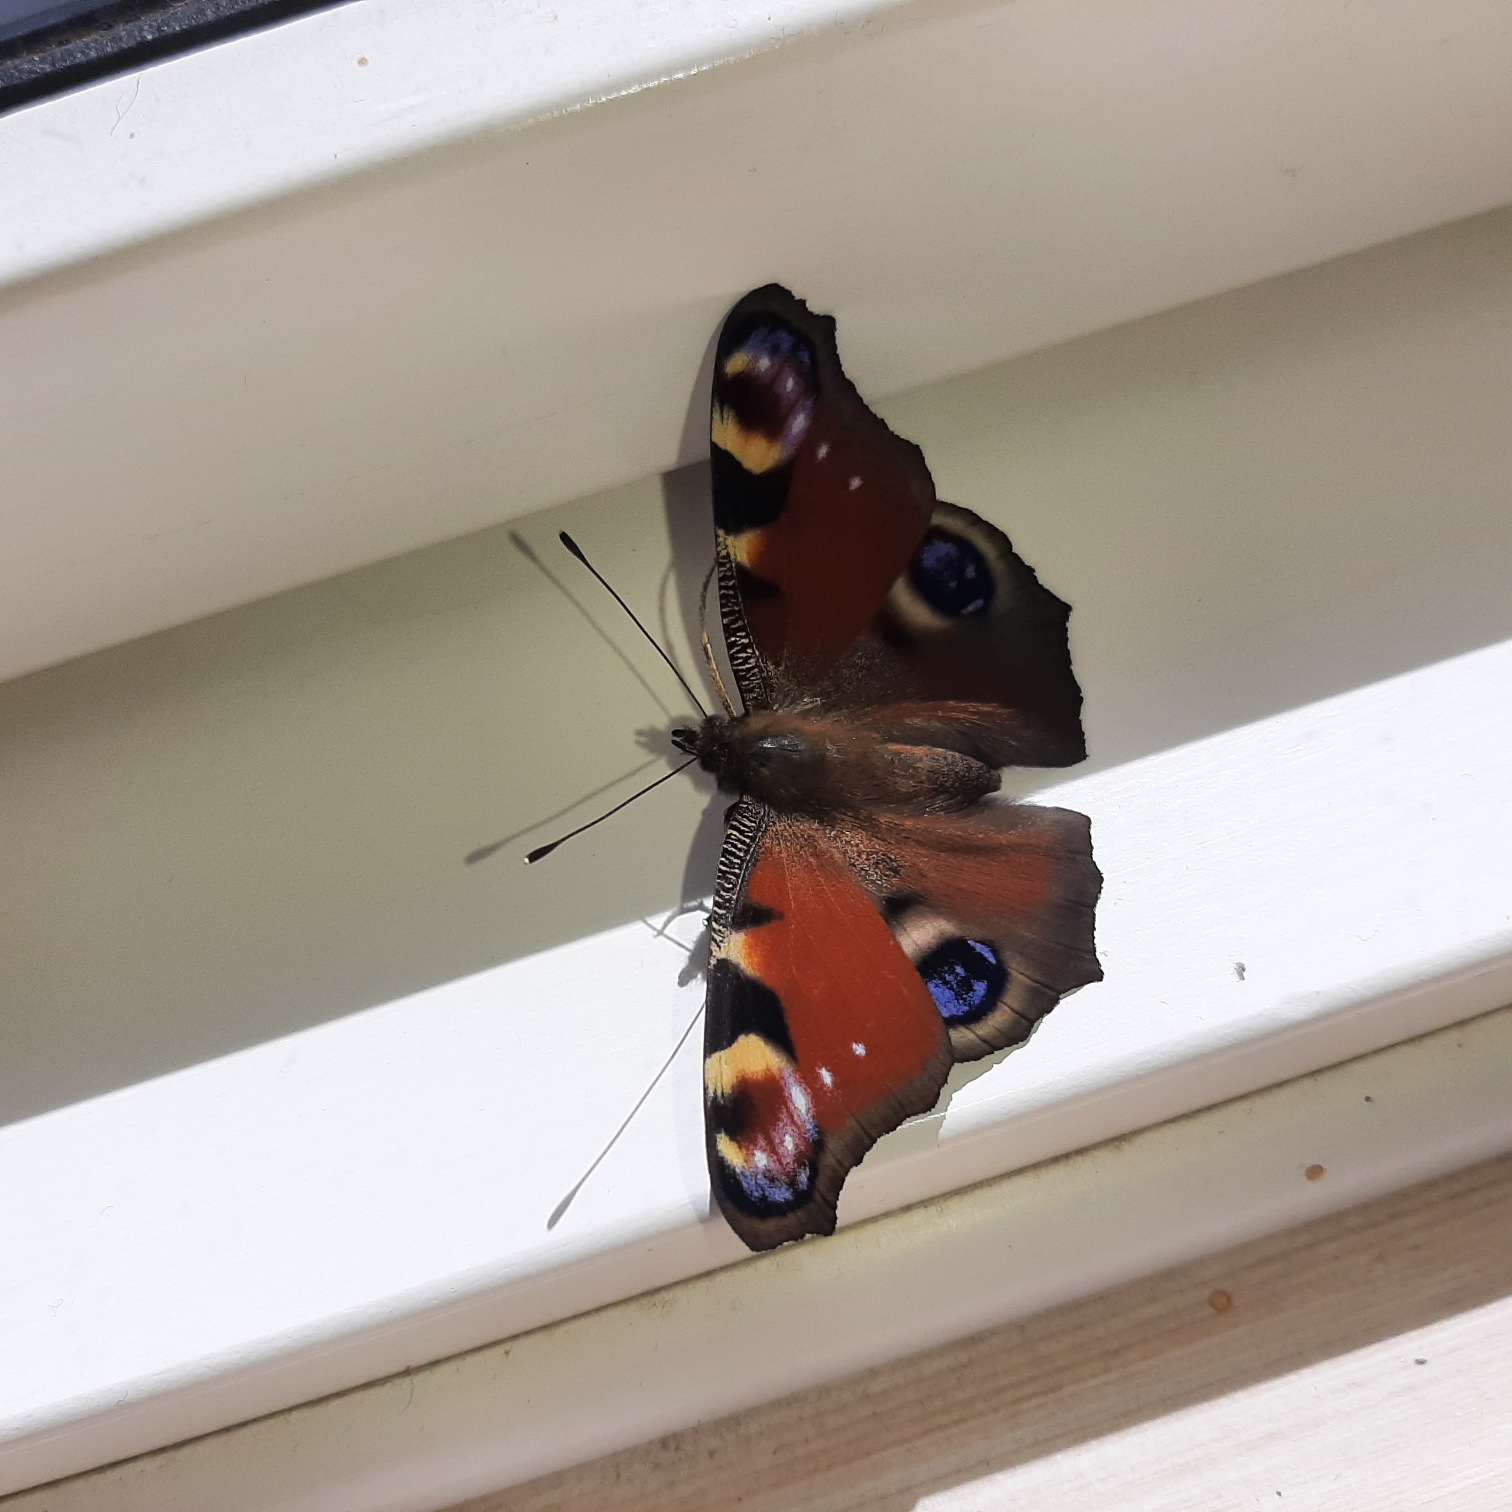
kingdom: Animalia
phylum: Arthropoda
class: Insecta
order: Lepidoptera
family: Nymphalidae
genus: Aglais
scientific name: Aglais io
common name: Dagpåfugleøje
